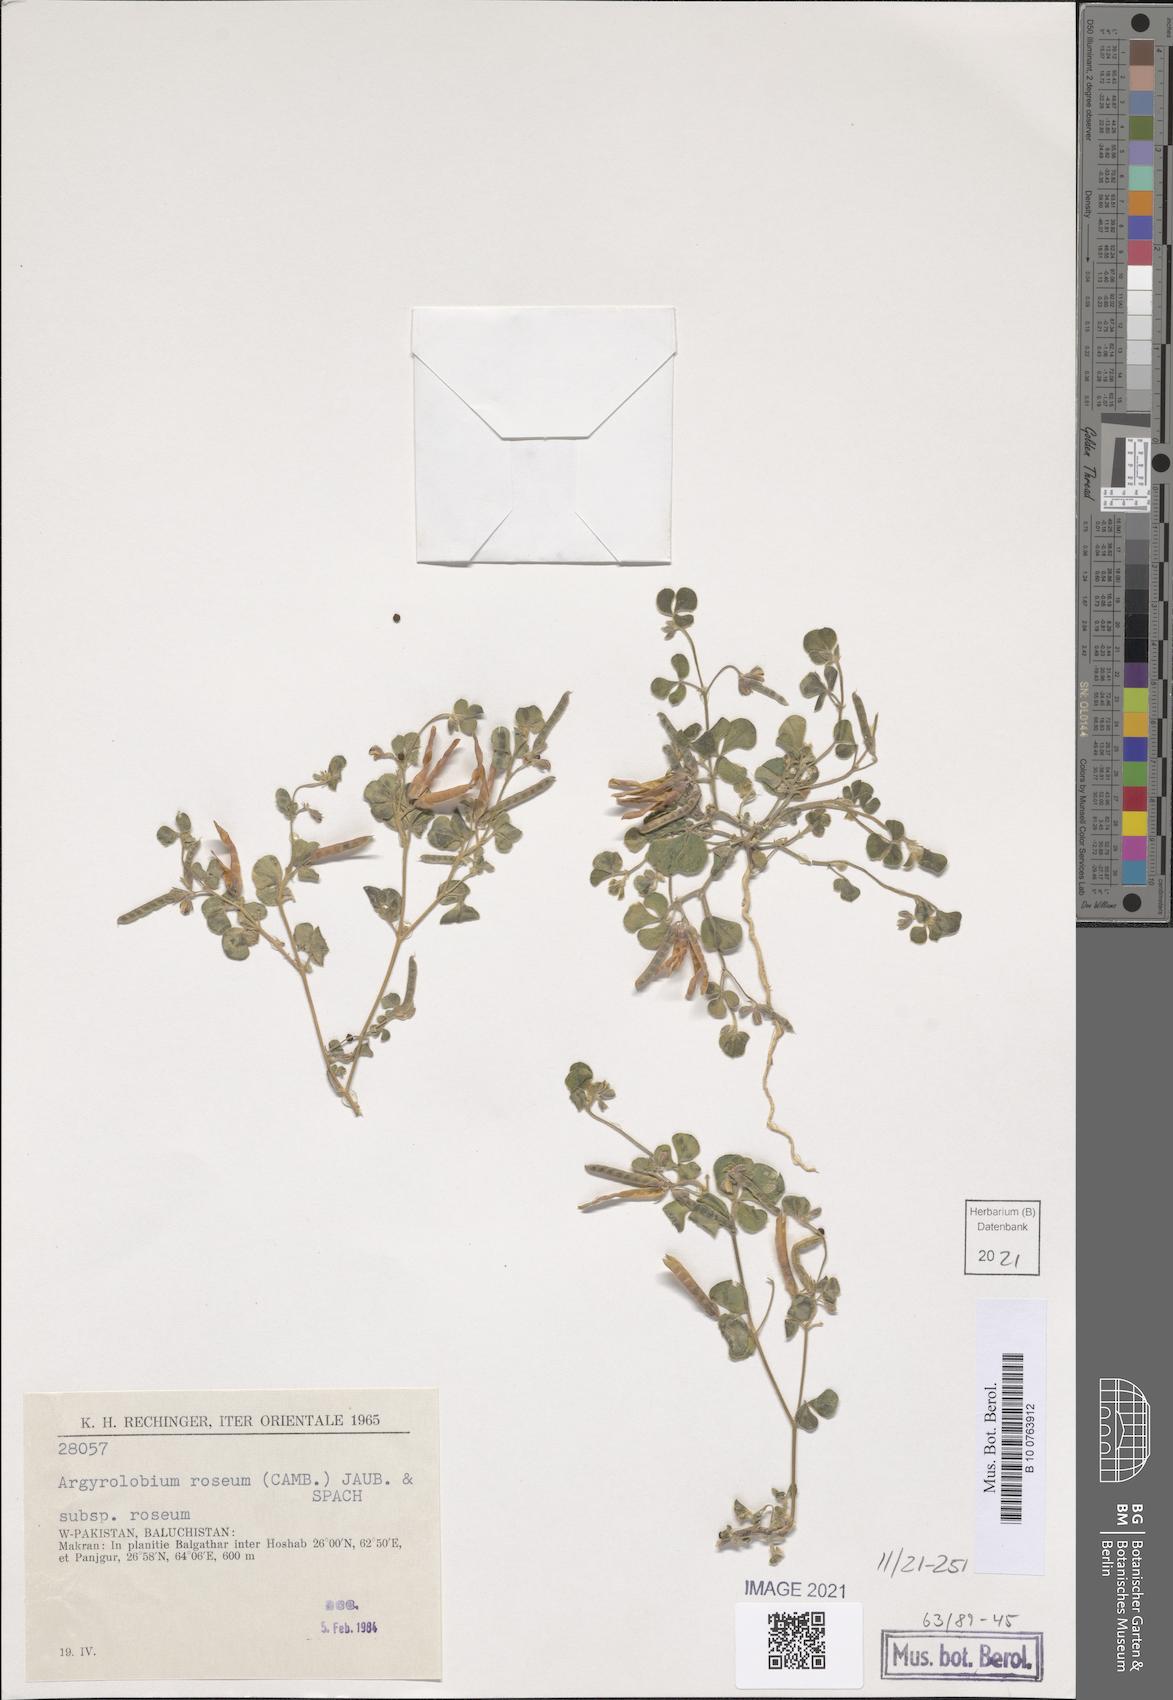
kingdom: Plantae
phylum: Tracheophyta
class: Magnoliopsida
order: Fabales
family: Fabaceae
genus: Argyrolobium
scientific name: Argyrolobium roseum
